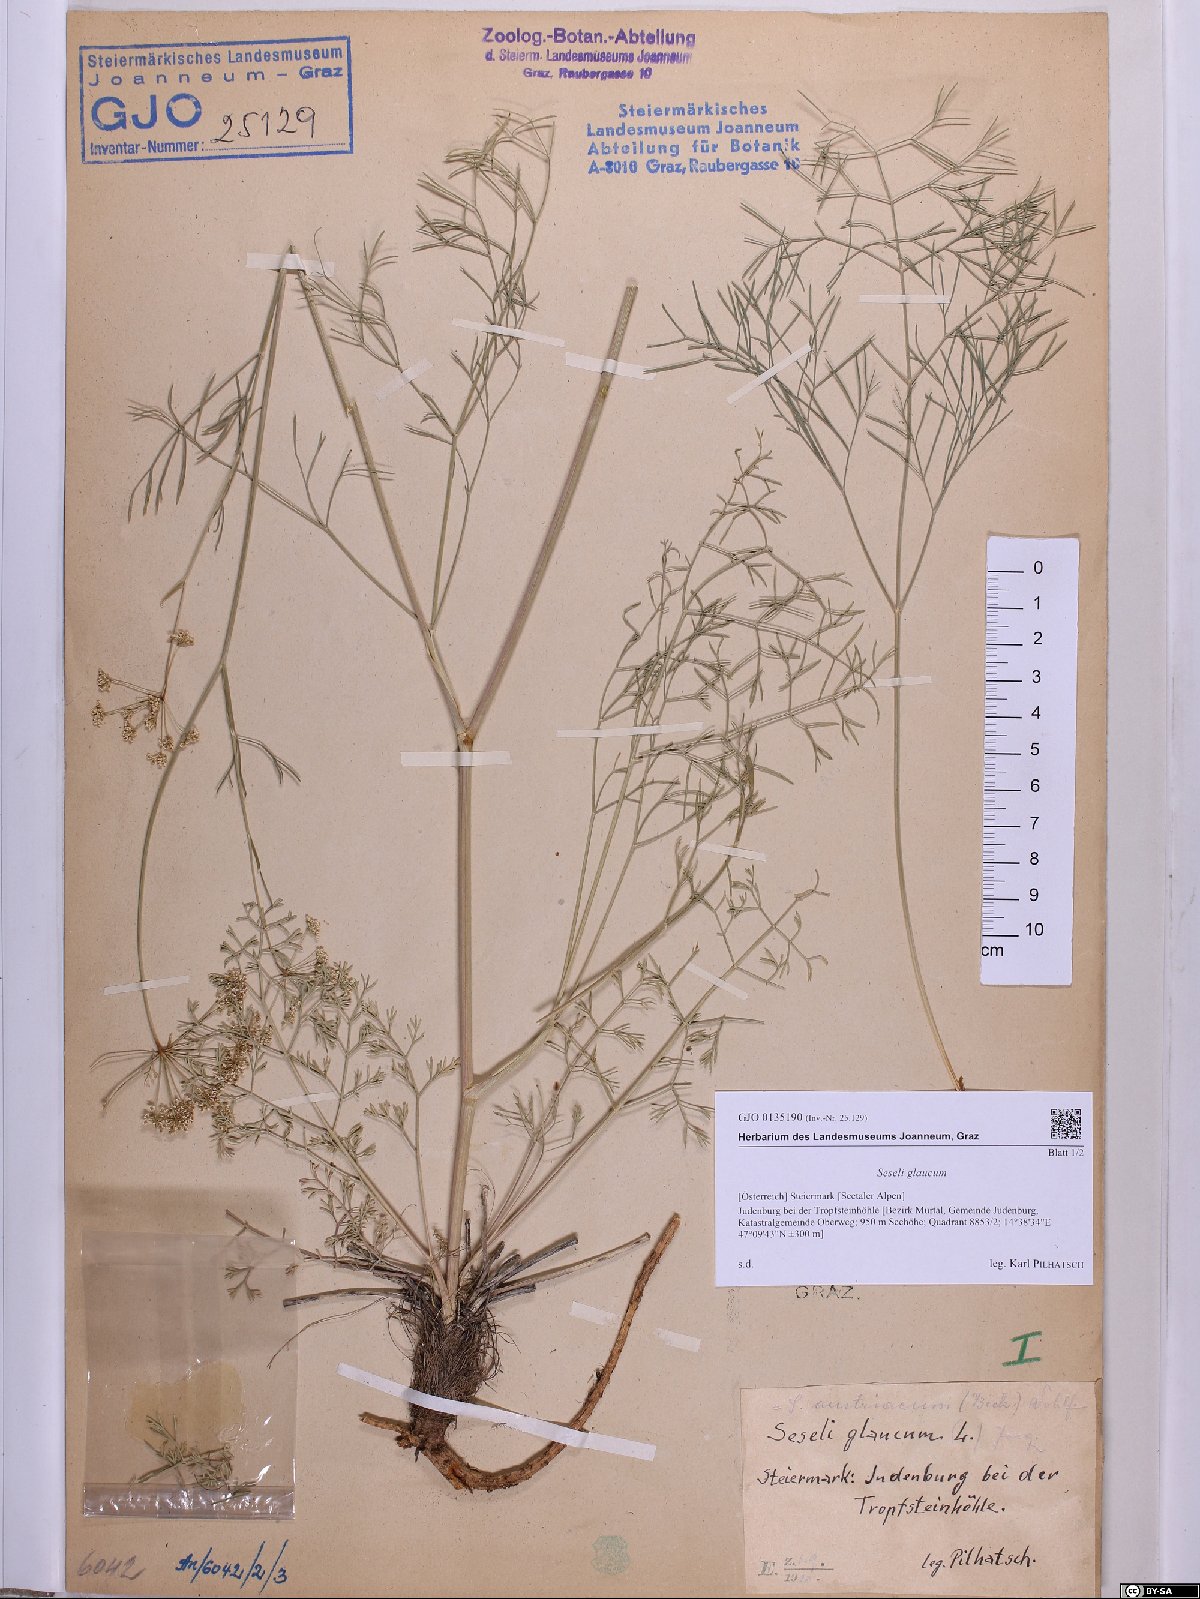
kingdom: Plantae
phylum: Tracheophyta
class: Magnoliopsida
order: Apiales
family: Apiaceae
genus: Seseli
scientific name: Seseli montanum
